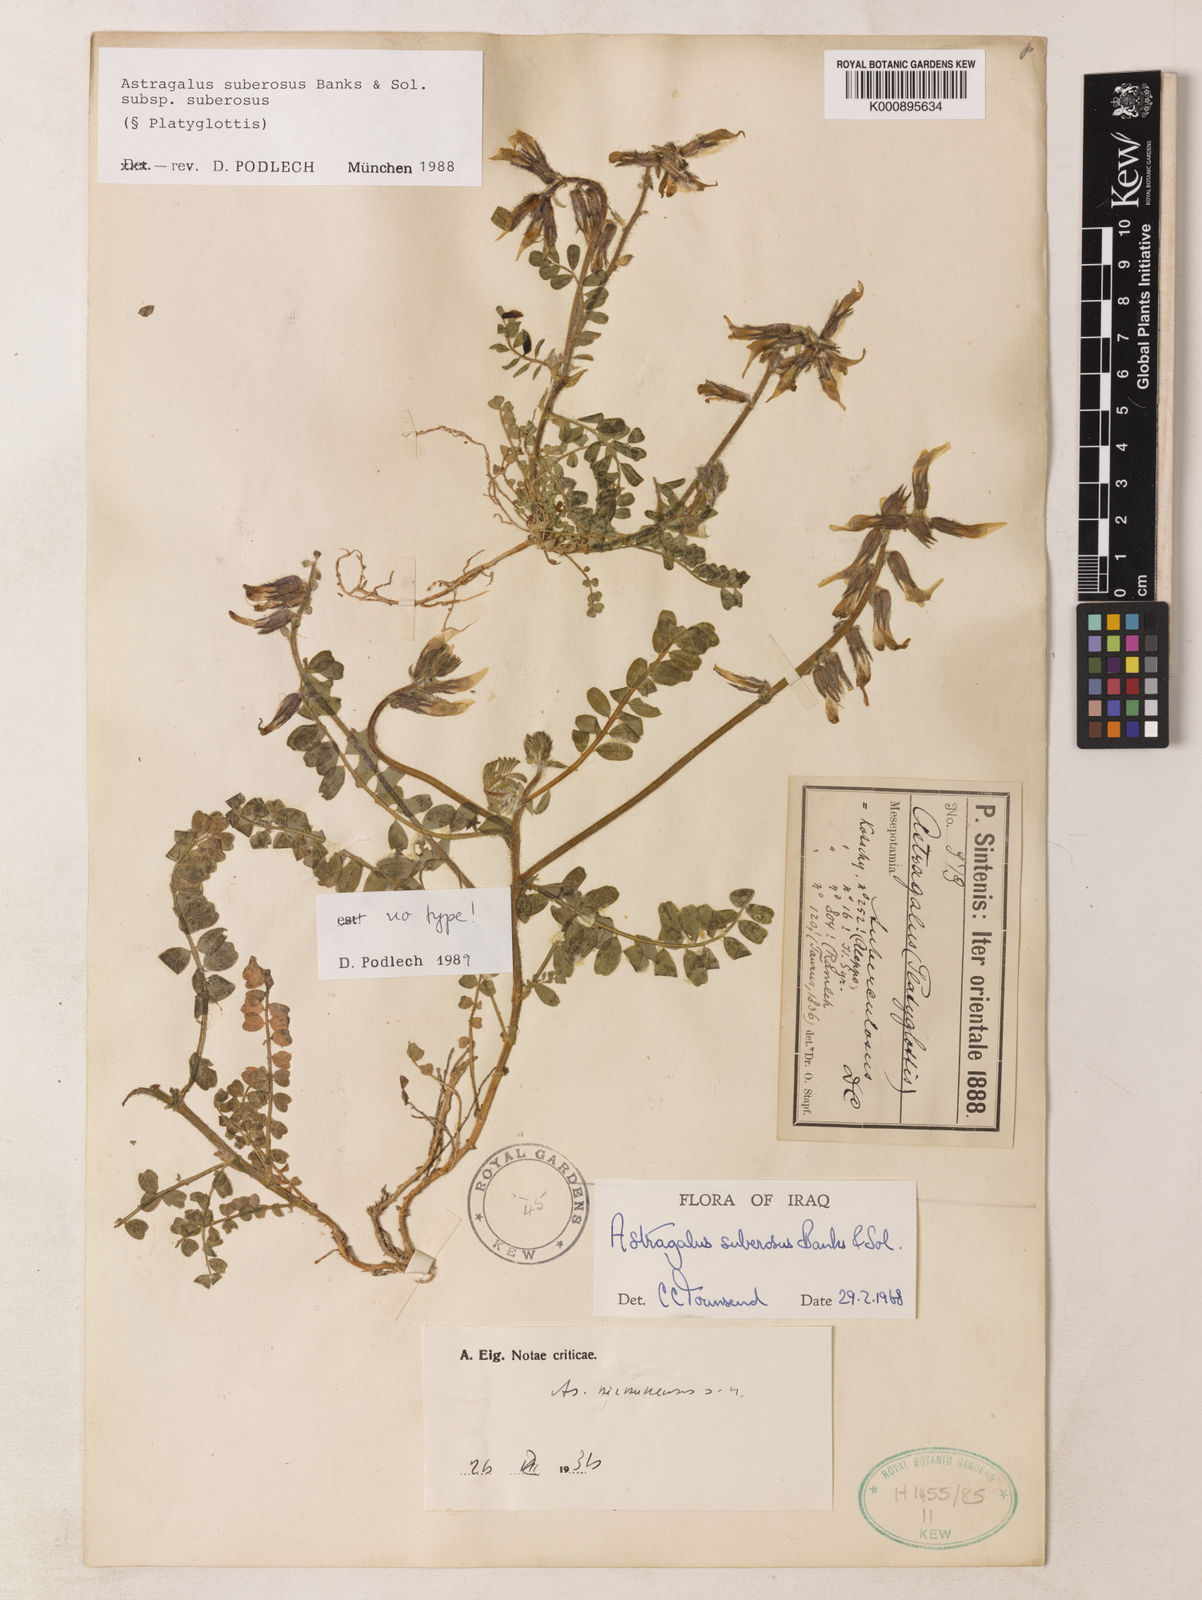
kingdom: Plantae
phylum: Tracheophyta
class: Magnoliopsida
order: Fabales
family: Fabaceae
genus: Astragalus
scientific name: Astragalus suberosus
